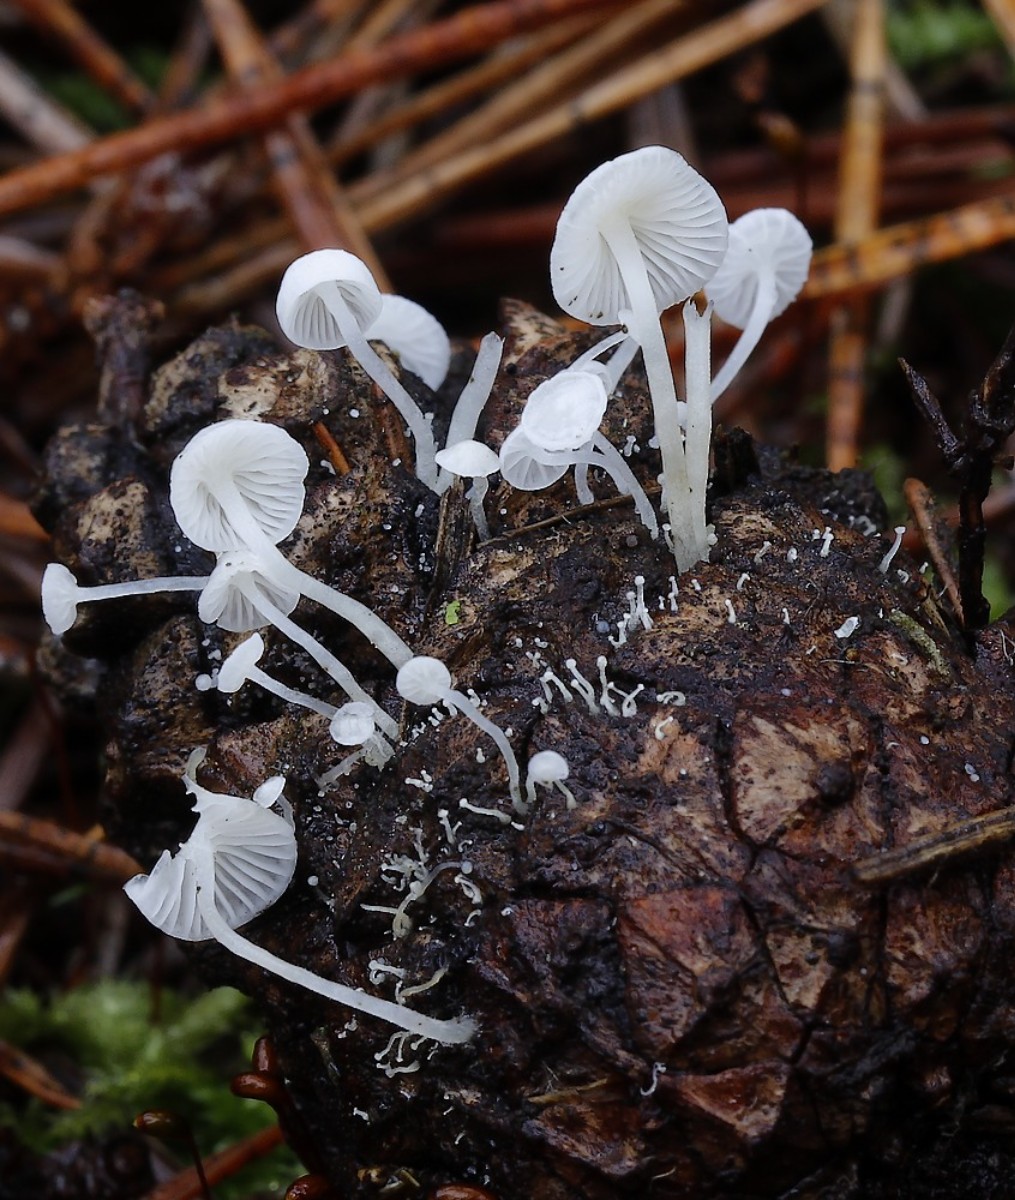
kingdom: Fungi
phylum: Basidiomycota
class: Agaricomycetes
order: Agaricales
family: Mycenaceae
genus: Hemimycena
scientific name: Hemimycena lactea
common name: mælkehvid huesvamp
